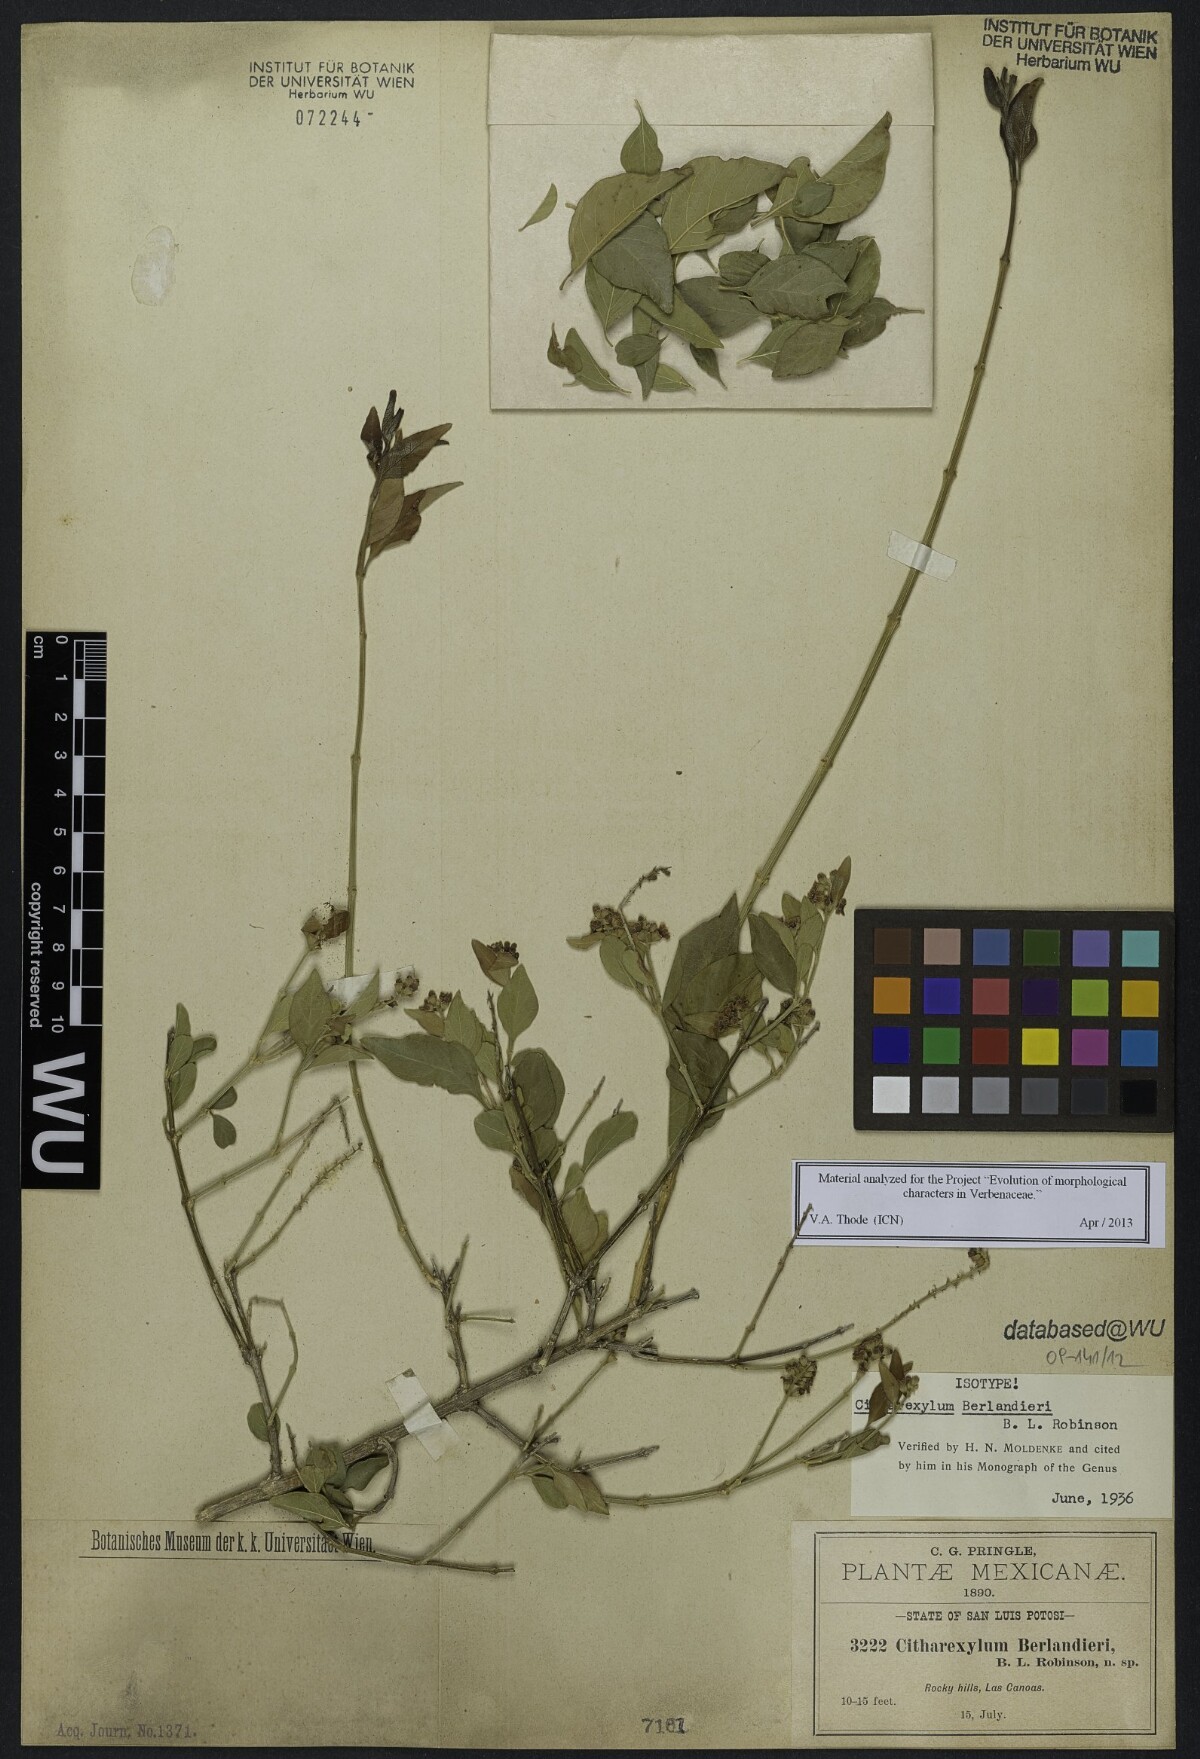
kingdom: Plantae
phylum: Tracheophyta
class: Magnoliopsida
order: Lamiales
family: Verbenaceae
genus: Citharexylum
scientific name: Citharexylum berlandieri
